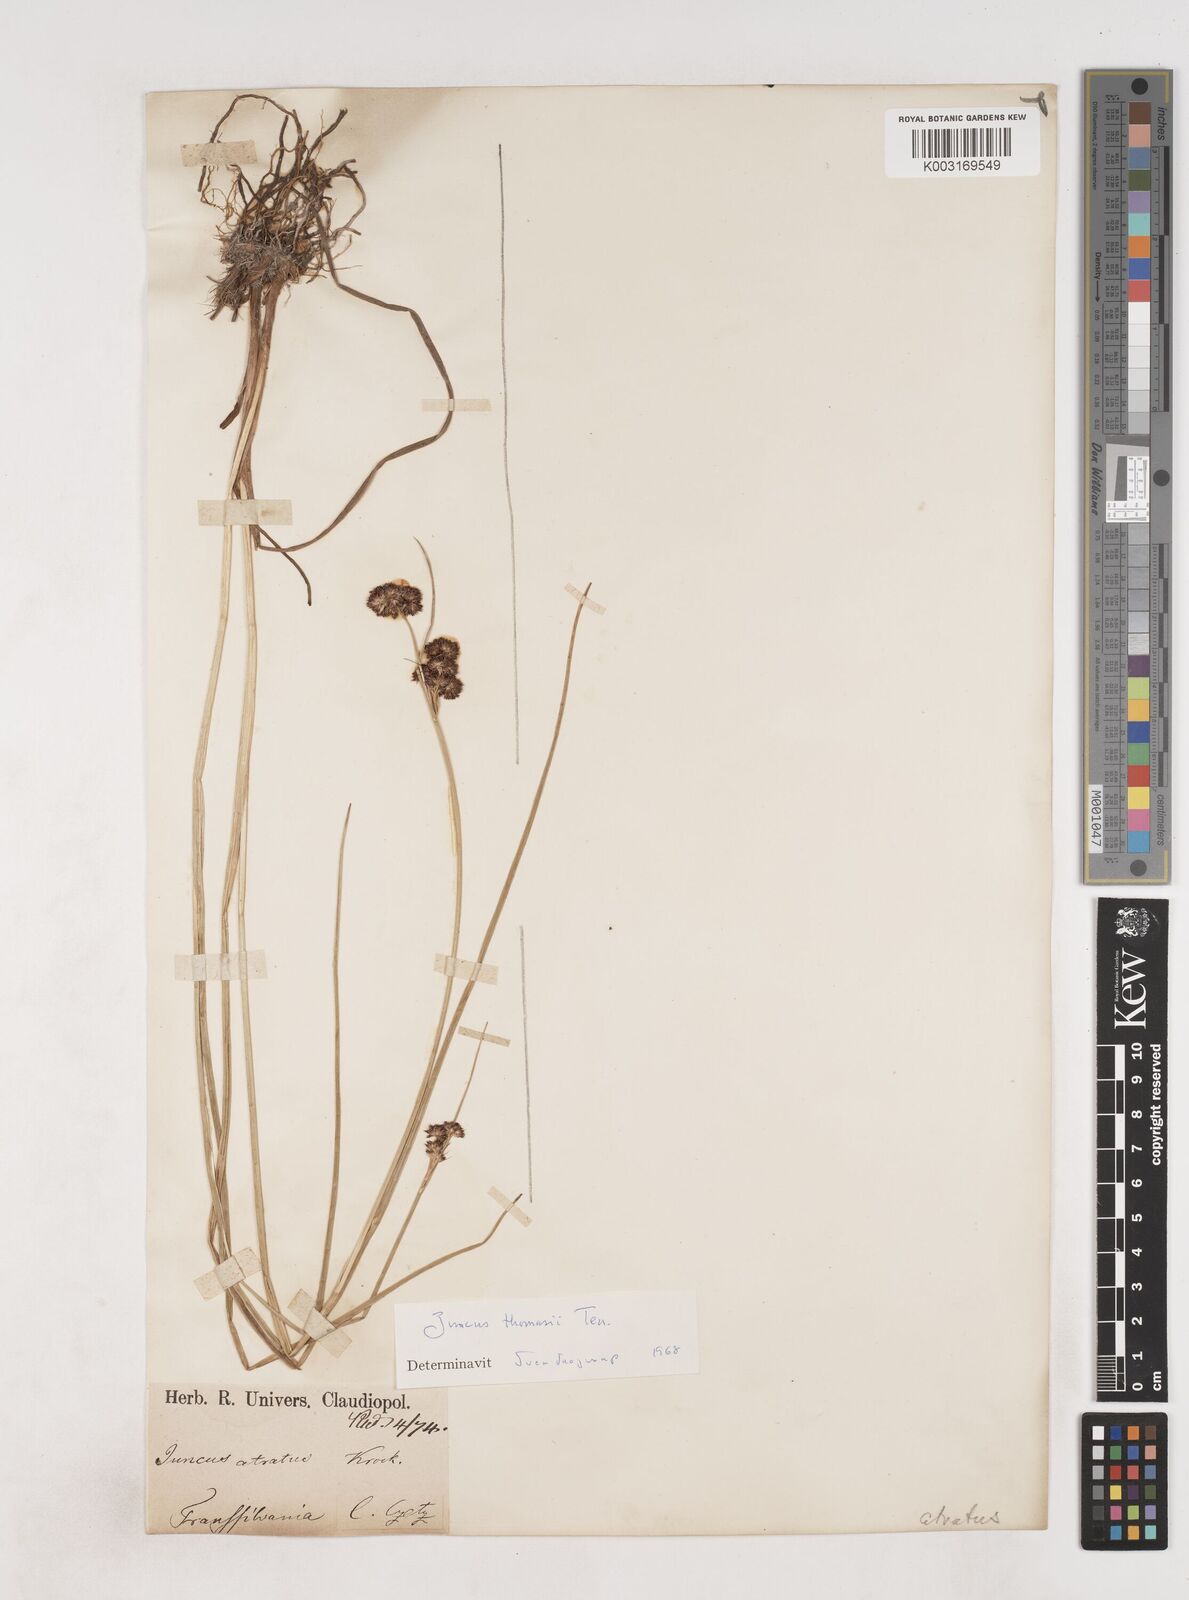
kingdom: Plantae
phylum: Tracheophyta
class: Liliopsida
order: Poales
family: Juncaceae
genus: Juncus
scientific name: Juncus thomasii
